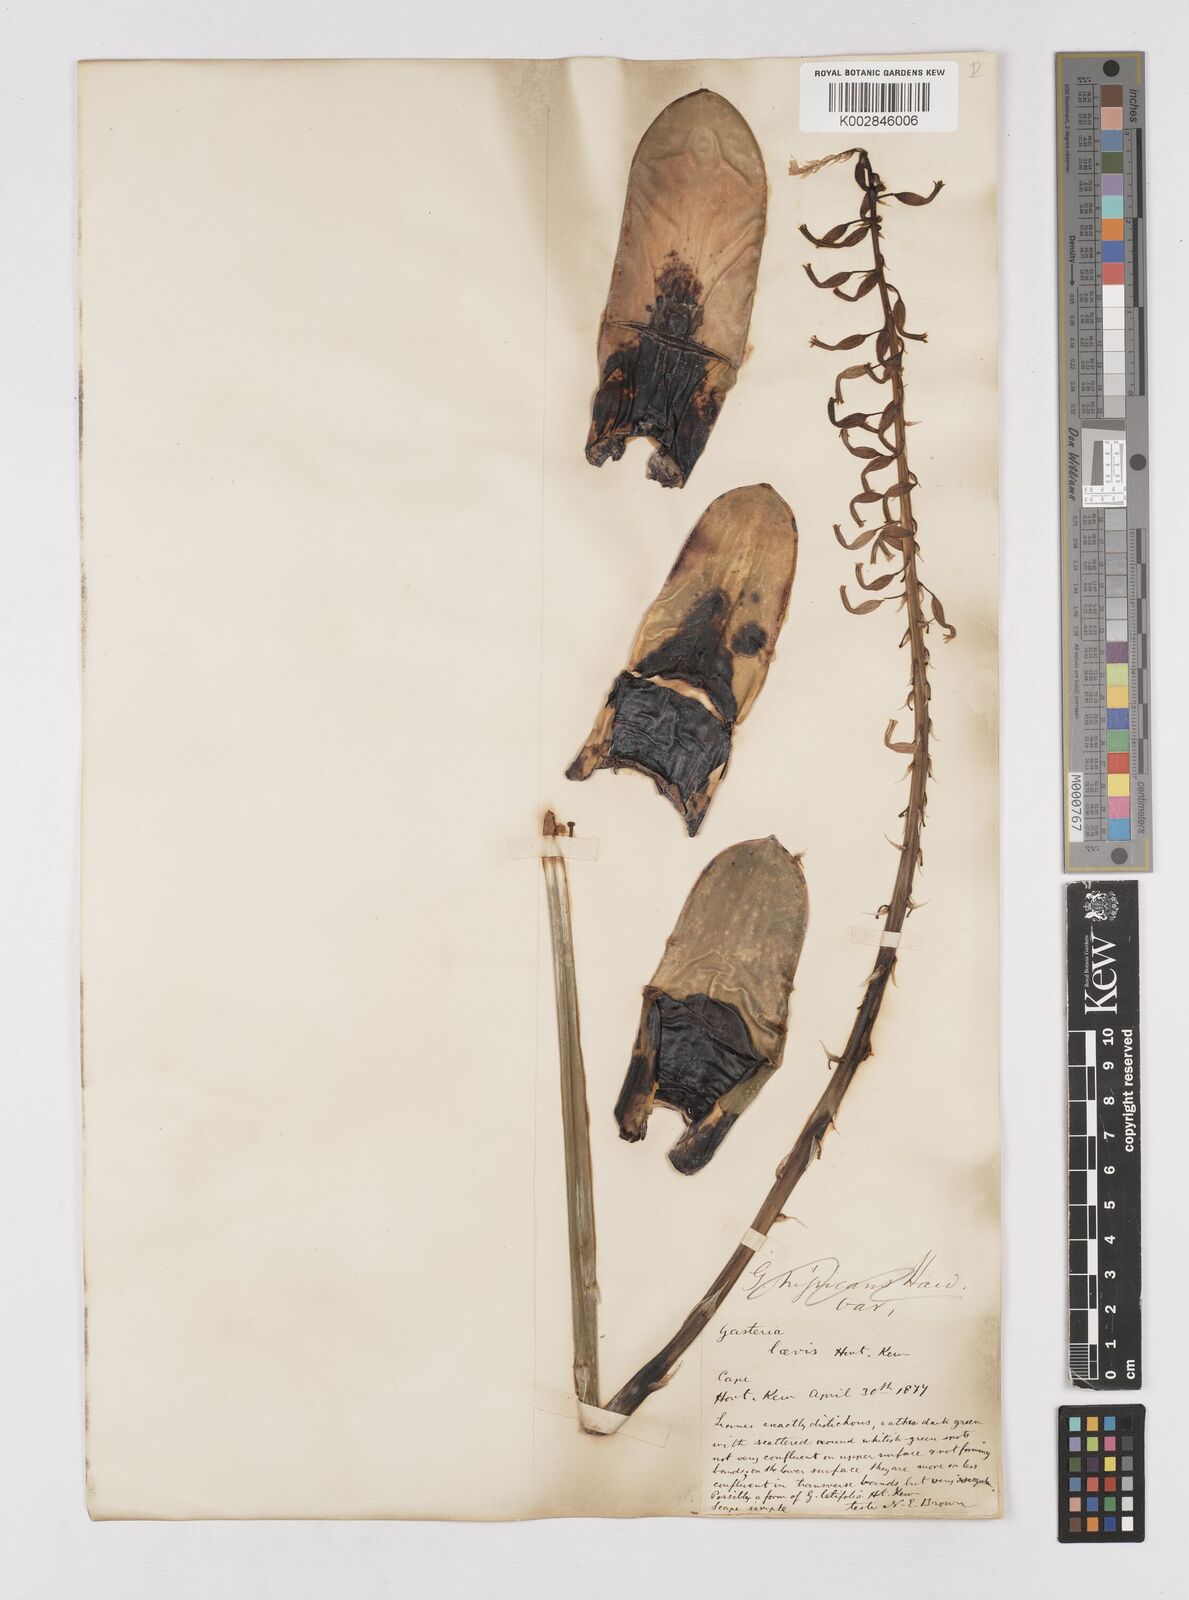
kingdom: Plantae
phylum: Tracheophyta
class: Liliopsida
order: Asparagales
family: Asphodelaceae
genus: Gasteria
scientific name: Gasteria obliqua
